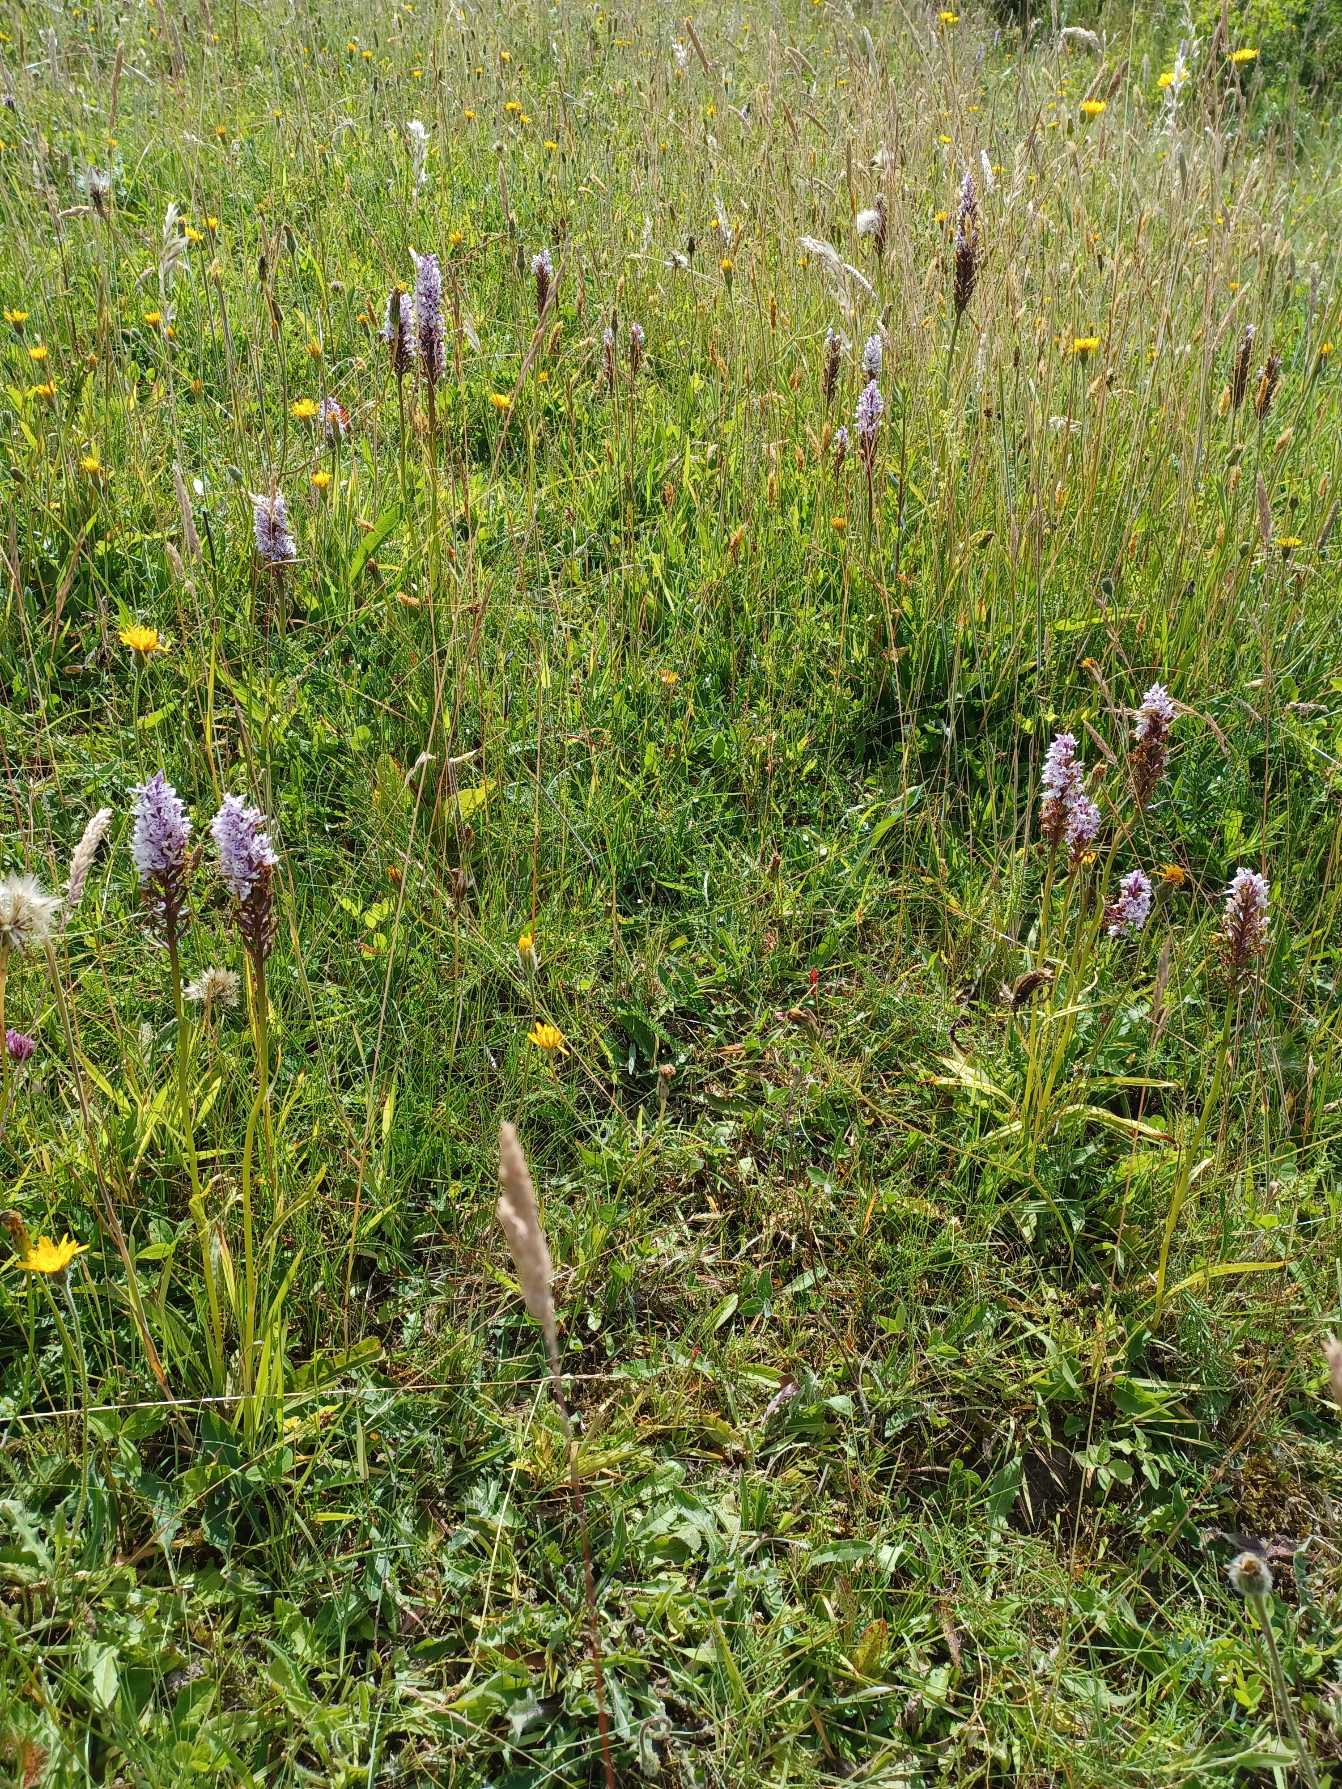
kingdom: Plantae
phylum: Tracheophyta
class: Liliopsida
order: Asparagales
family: Orchidaceae
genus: Dactylorhiza
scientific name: Dactylorhiza maculata
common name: Skov-gøgeurt
